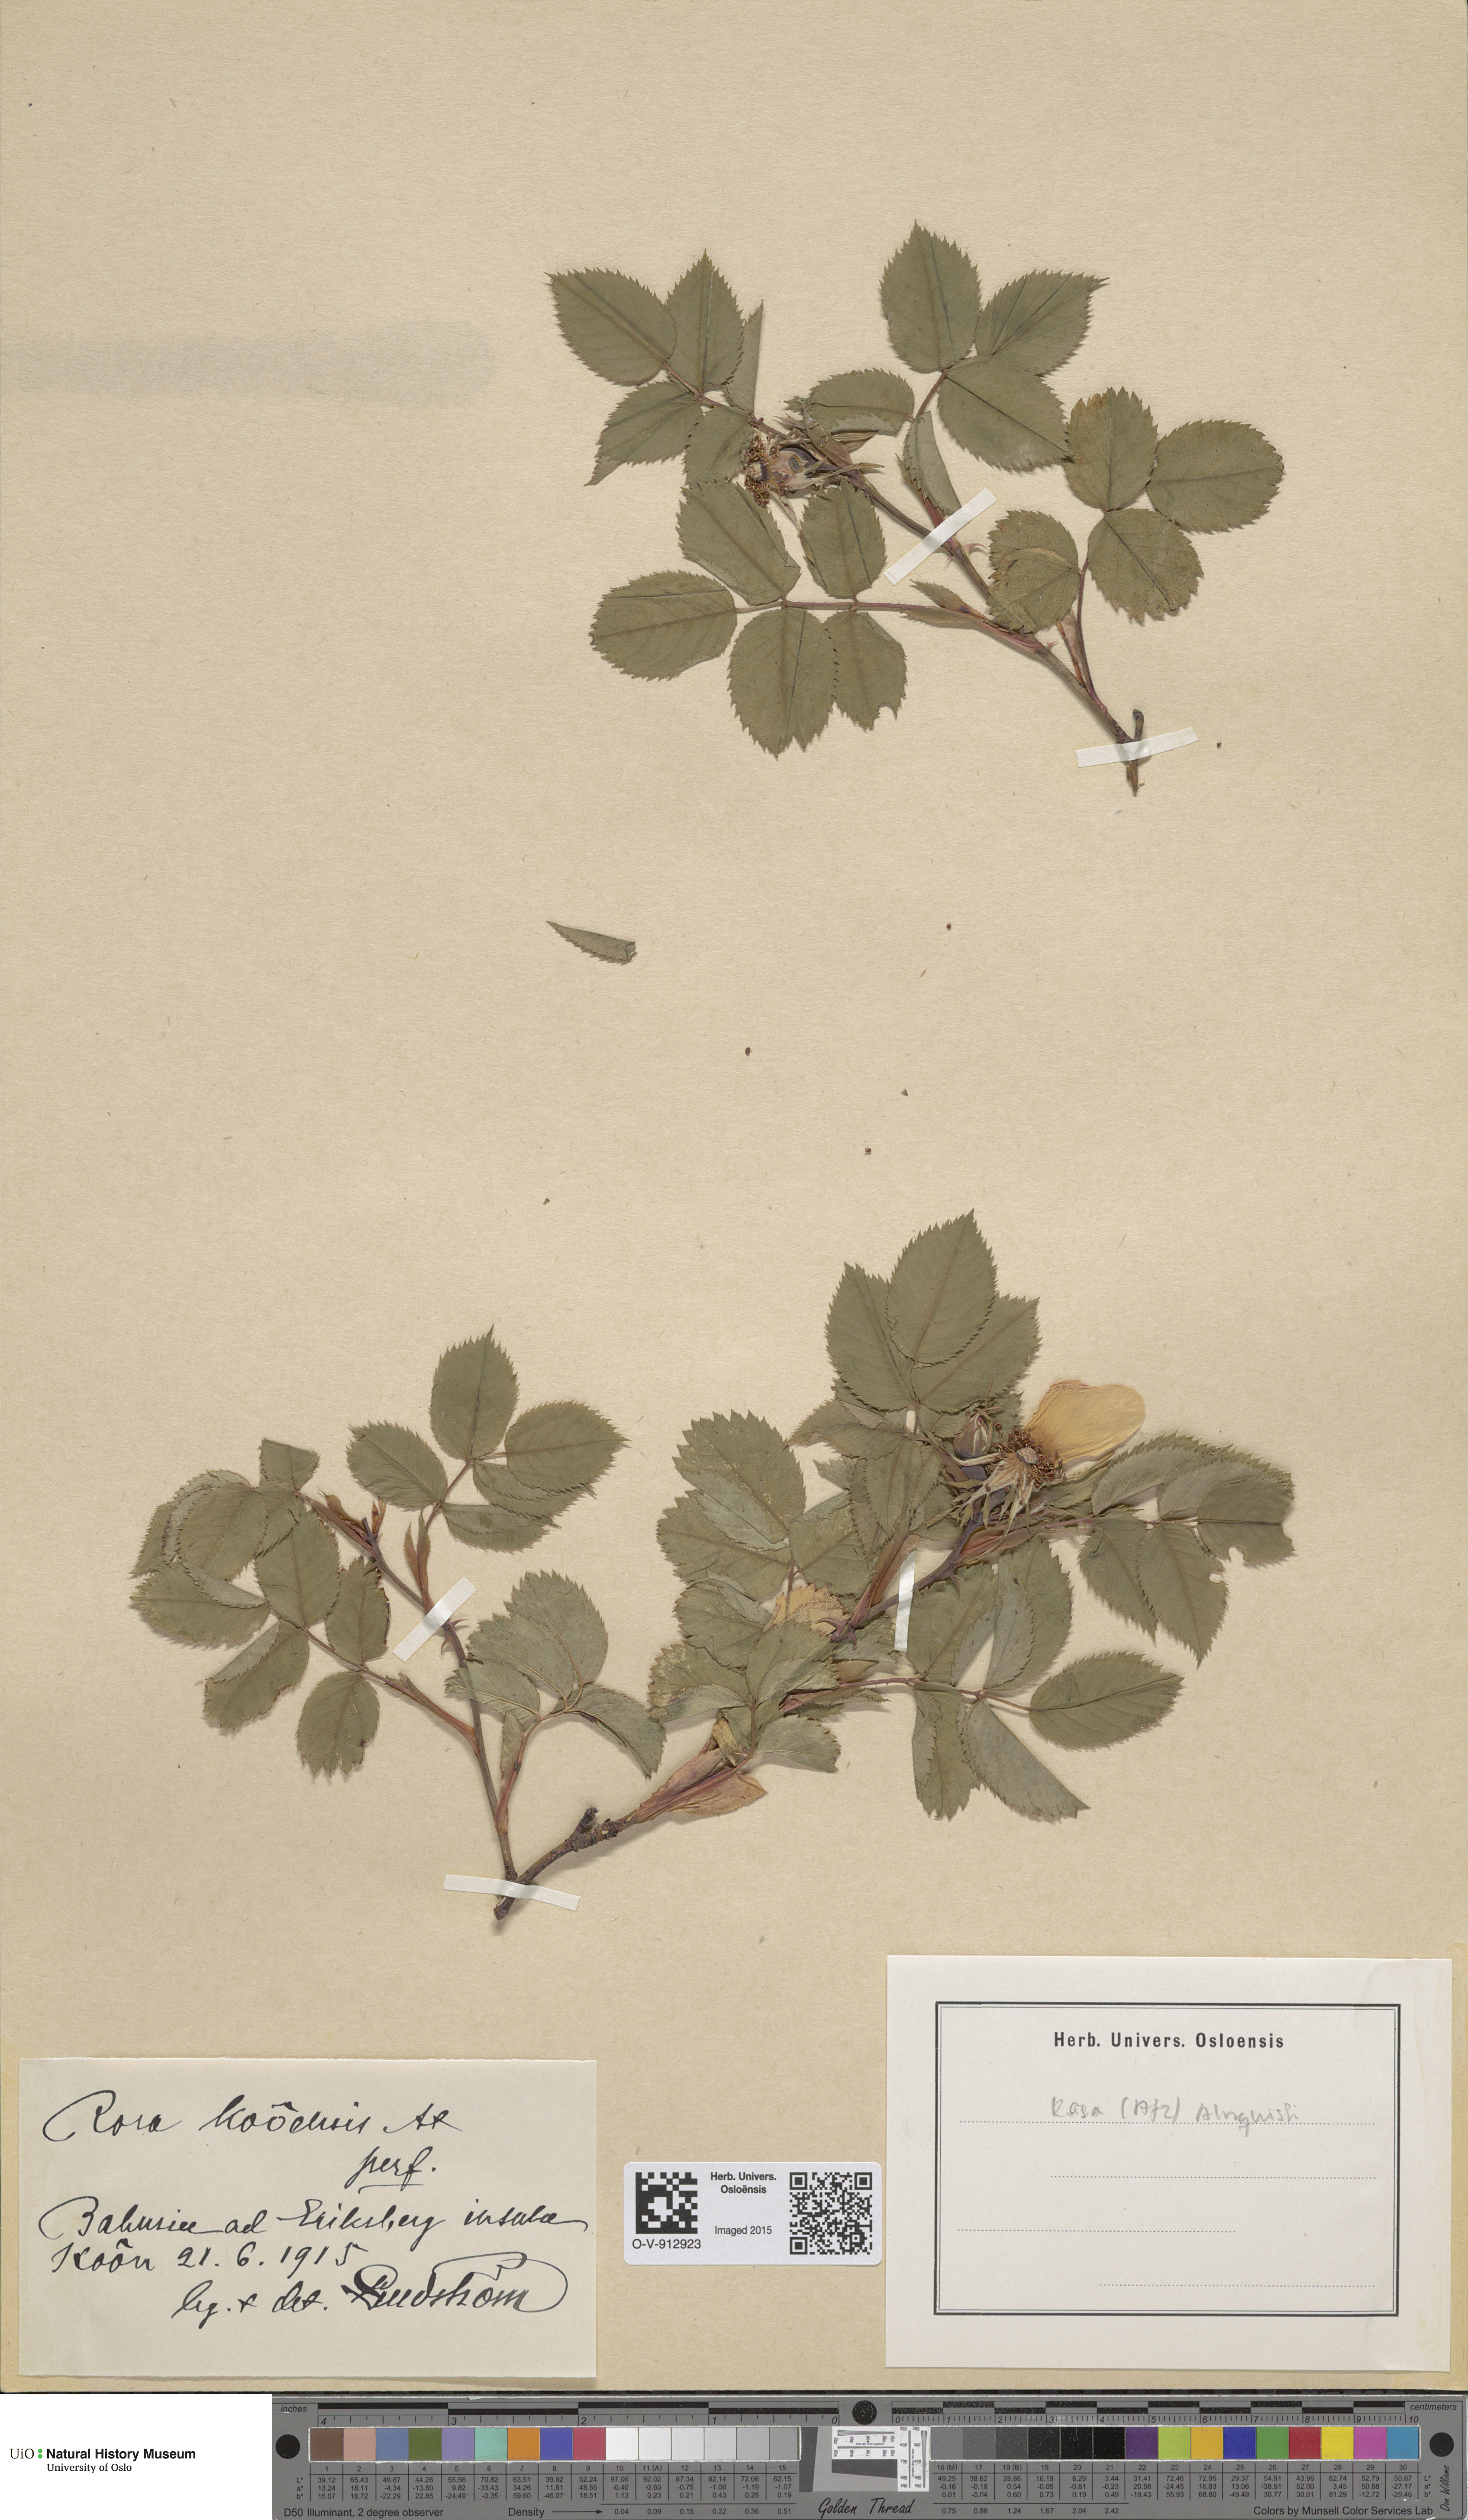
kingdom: Plantae
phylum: Tracheophyta
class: Magnoliopsida
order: Rosales
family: Rosaceae
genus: Rosa
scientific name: Rosa
